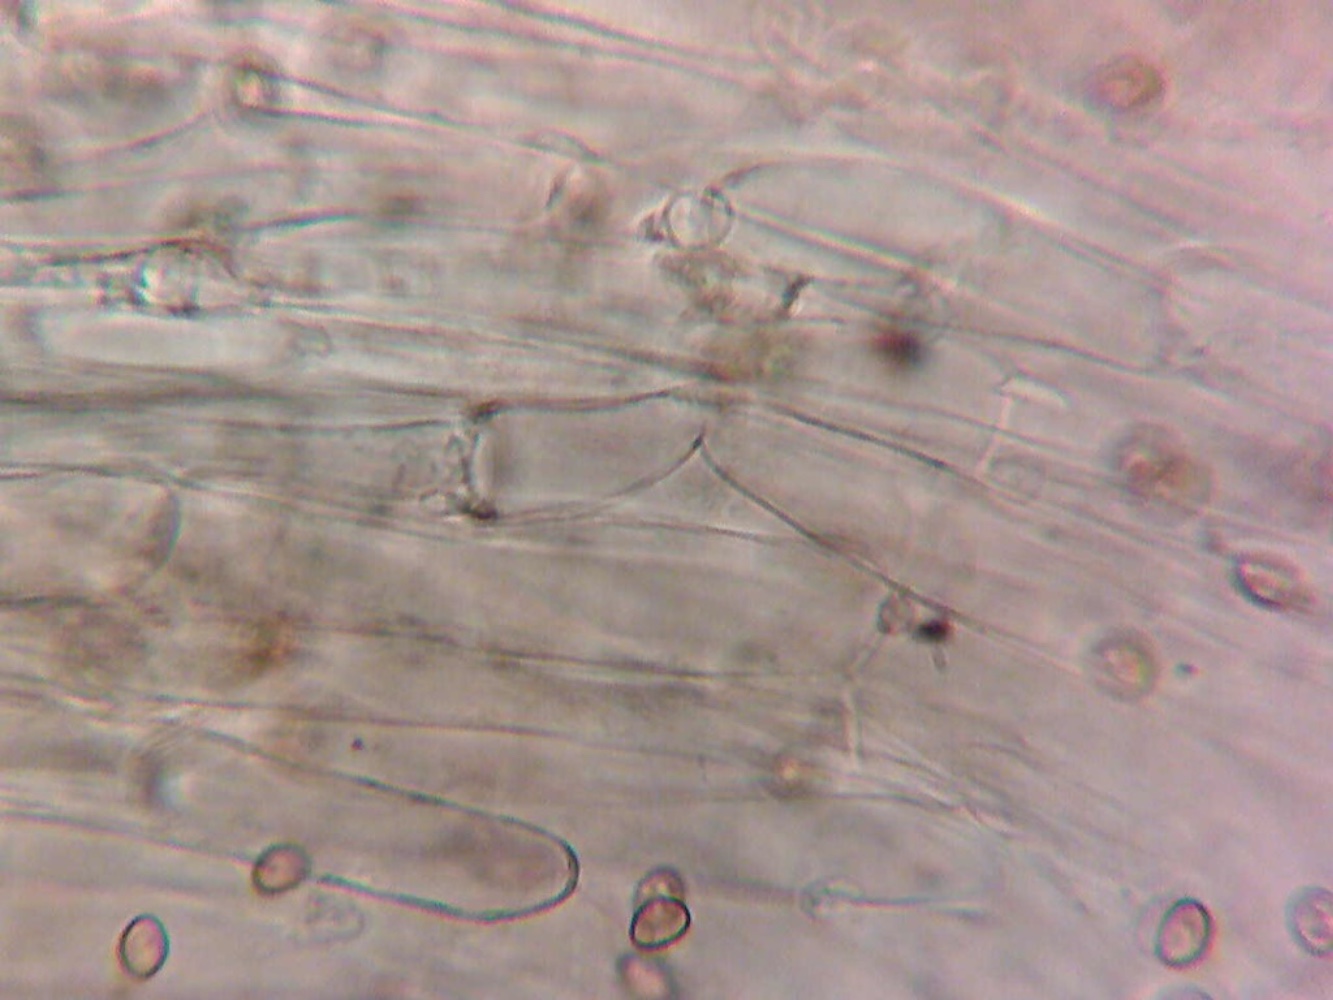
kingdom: Fungi
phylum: Basidiomycota
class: Agaricomycetes
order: Agaricales
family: Hymenogastraceae
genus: Phaeocollybia
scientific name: Phaeocollybia arduennensis
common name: mørk spidshat
